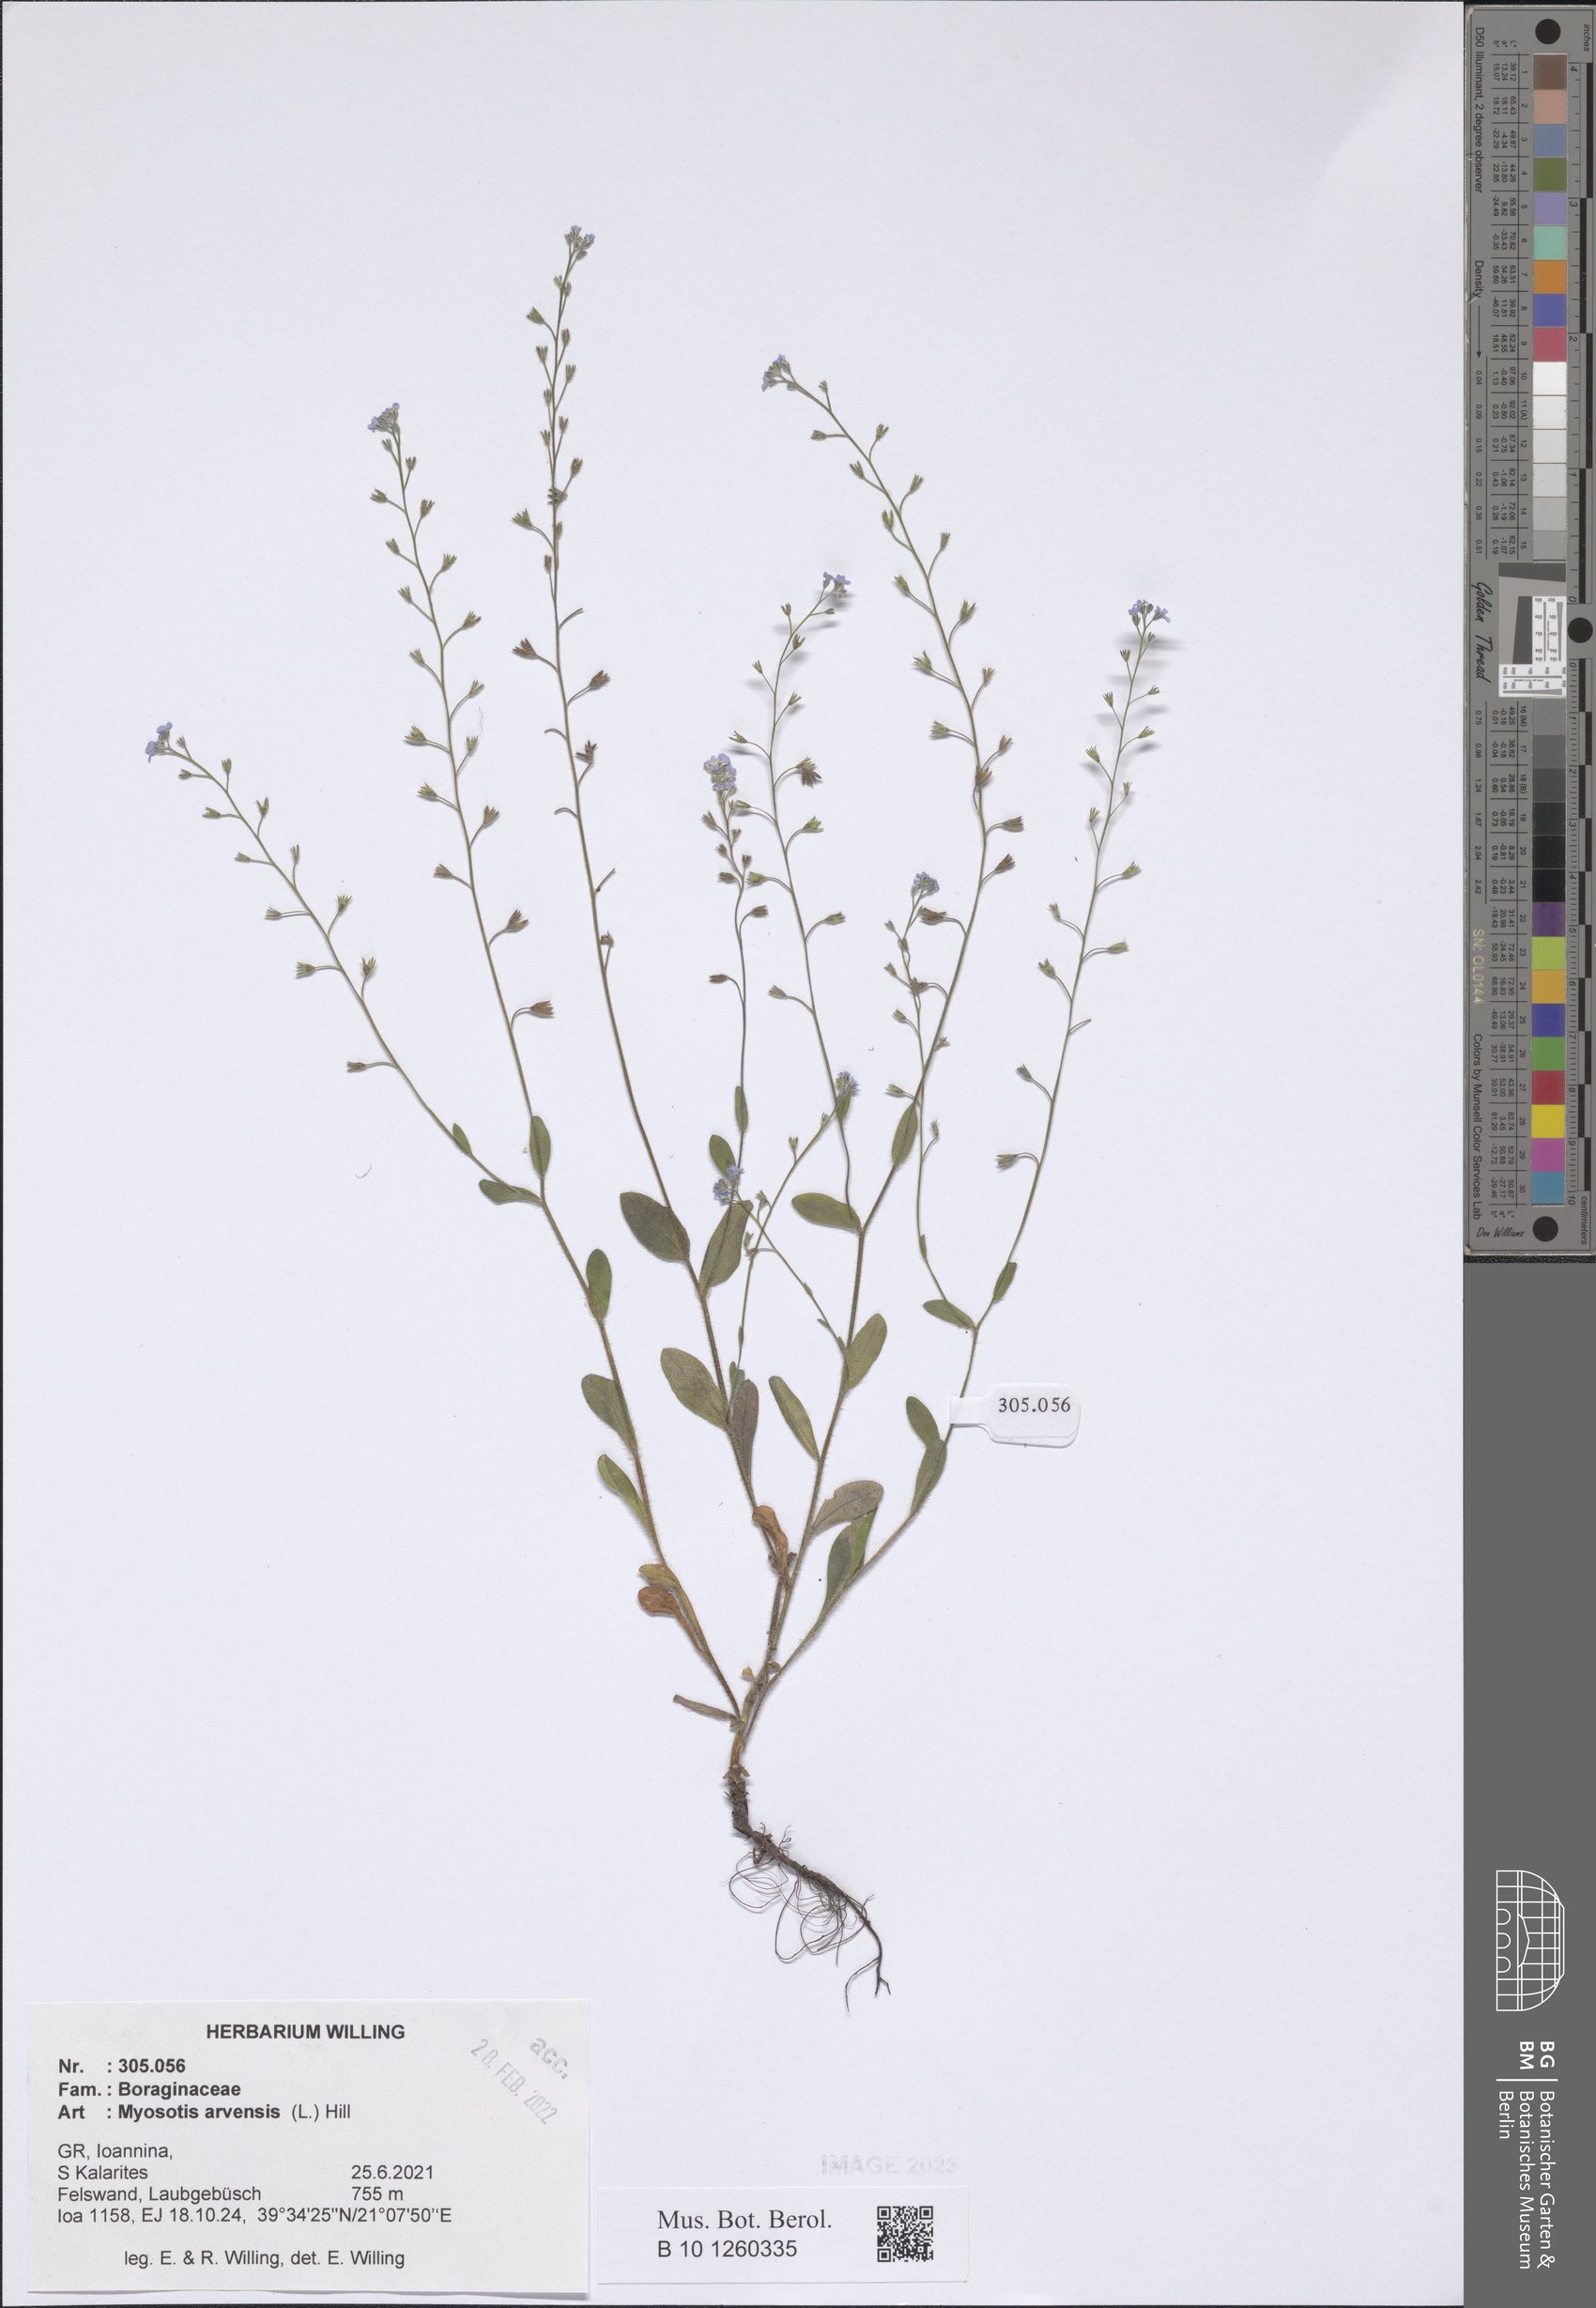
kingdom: Plantae
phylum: Tracheophyta
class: Magnoliopsida
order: Boraginales
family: Boraginaceae
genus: Myosotis
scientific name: Myosotis arvensis
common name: Field forget-me-not
